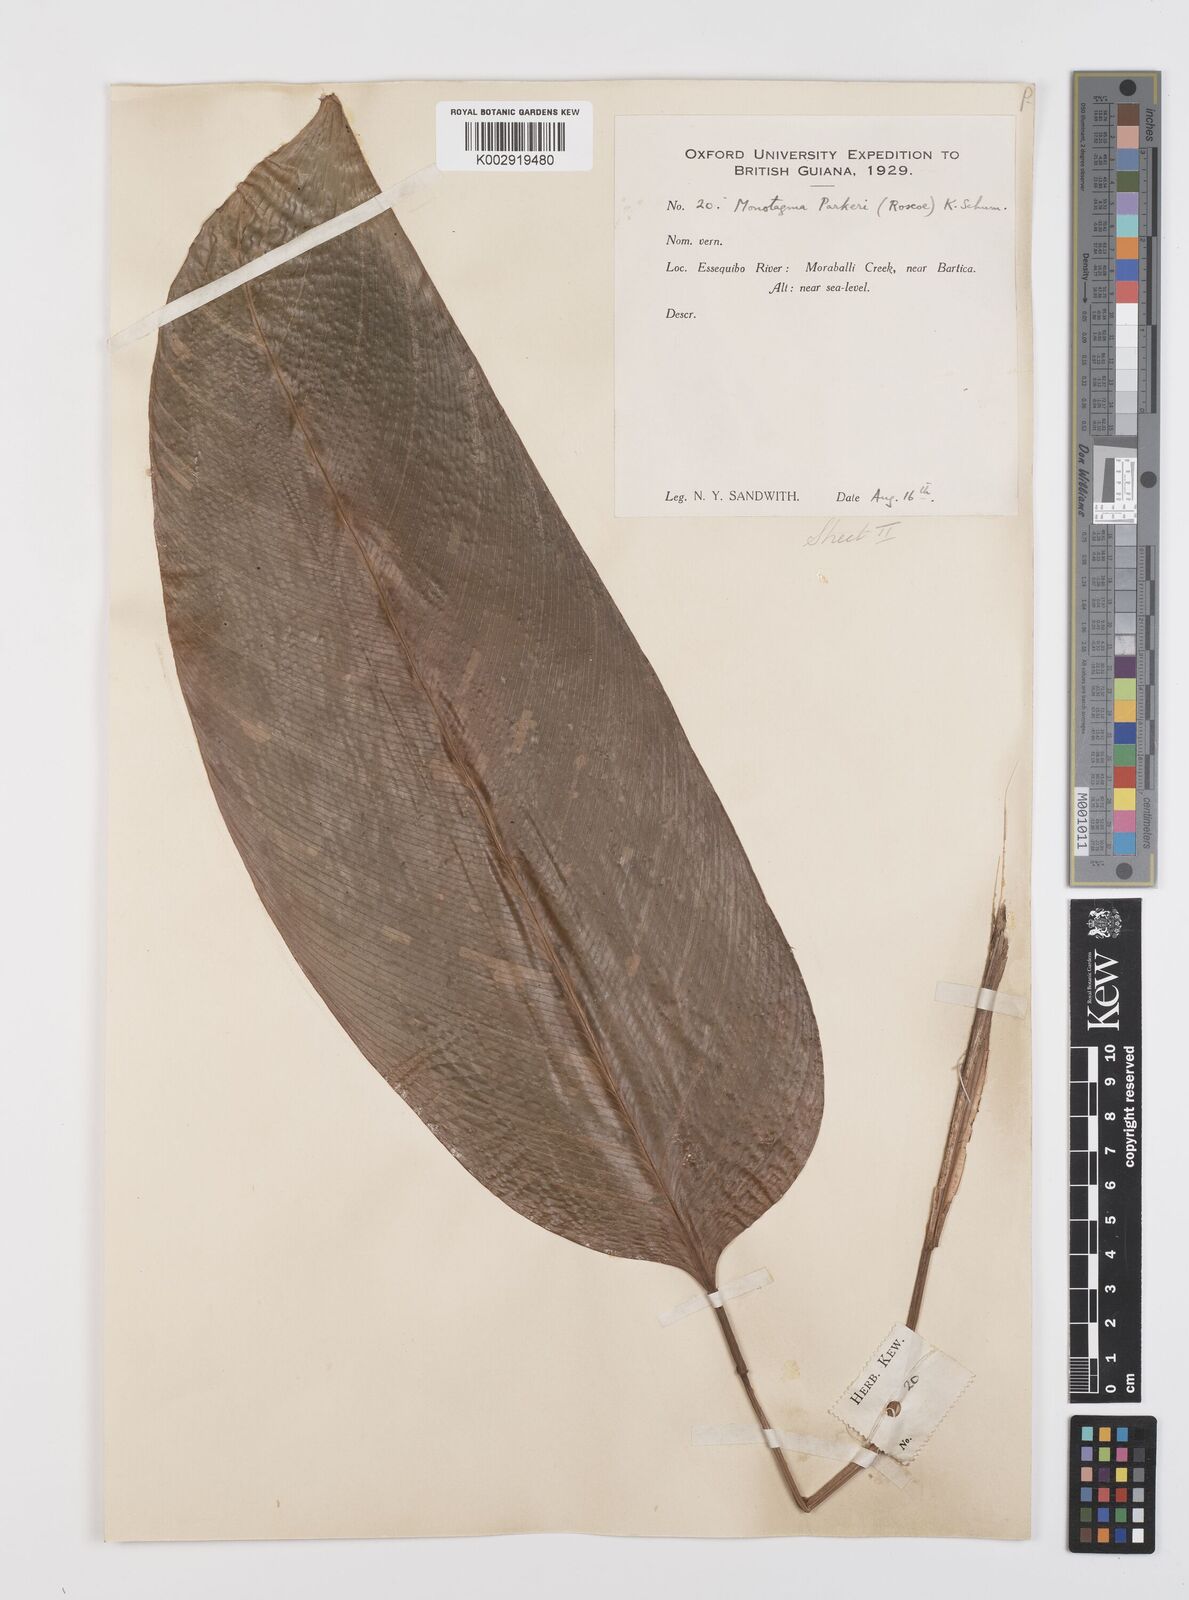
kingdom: Plantae
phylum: Tracheophyta
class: Liliopsida
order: Zingiberales
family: Marantaceae
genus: Monotagma
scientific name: Monotagma spicatum
